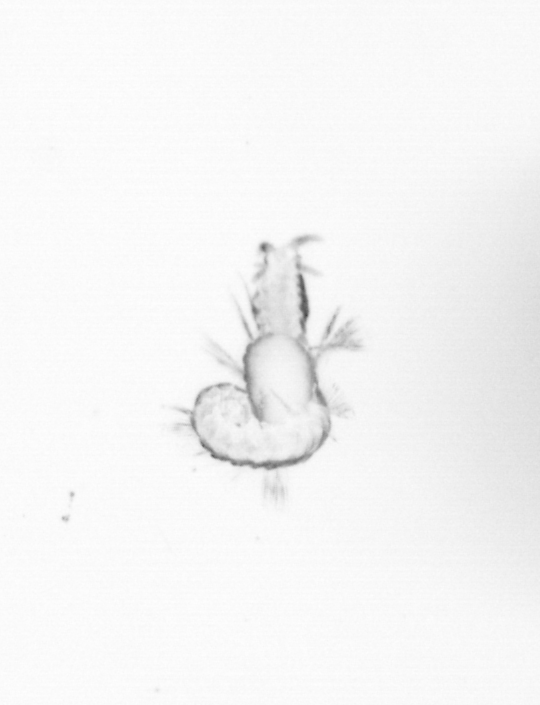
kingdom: Animalia
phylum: Annelida
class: Polychaeta
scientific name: Polychaeta
